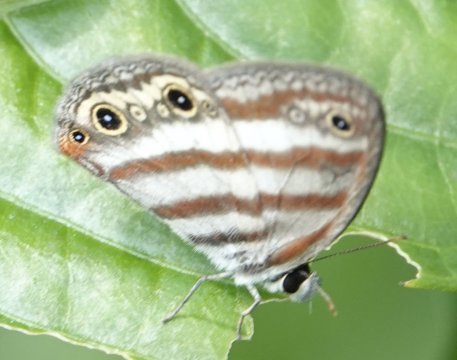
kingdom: Animalia
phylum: Arthropoda
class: Insecta
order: Lepidoptera
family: Nymphalidae
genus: Euptychia
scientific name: Euptychia mollina
